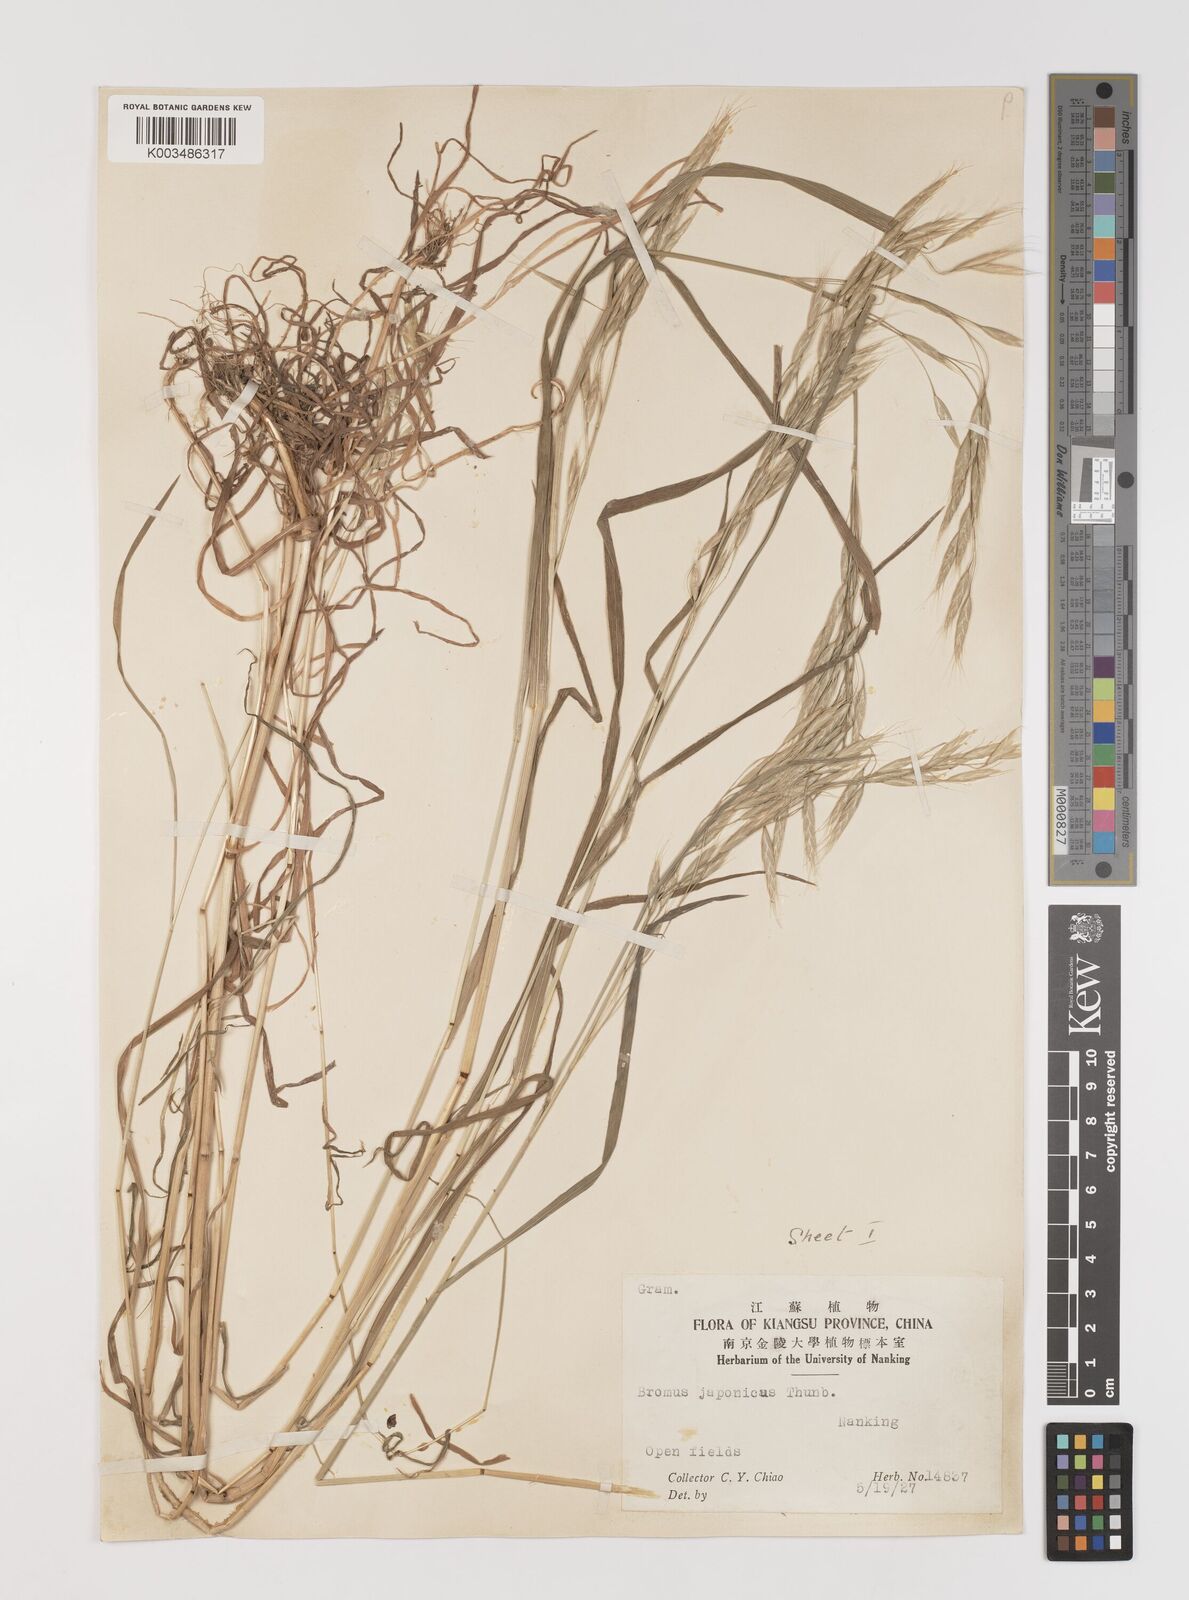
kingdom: Plantae
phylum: Tracheophyta
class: Liliopsida
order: Poales
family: Poaceae
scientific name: Poaceae
